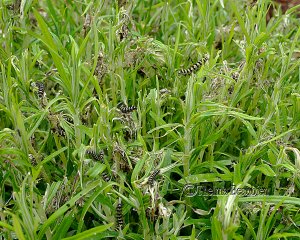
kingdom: Animalia
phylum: Arthropoda
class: Insecta
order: Lepidoptera
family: Nymphalidae
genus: Vanessa
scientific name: Vanessa virginiensis
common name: American Lady
